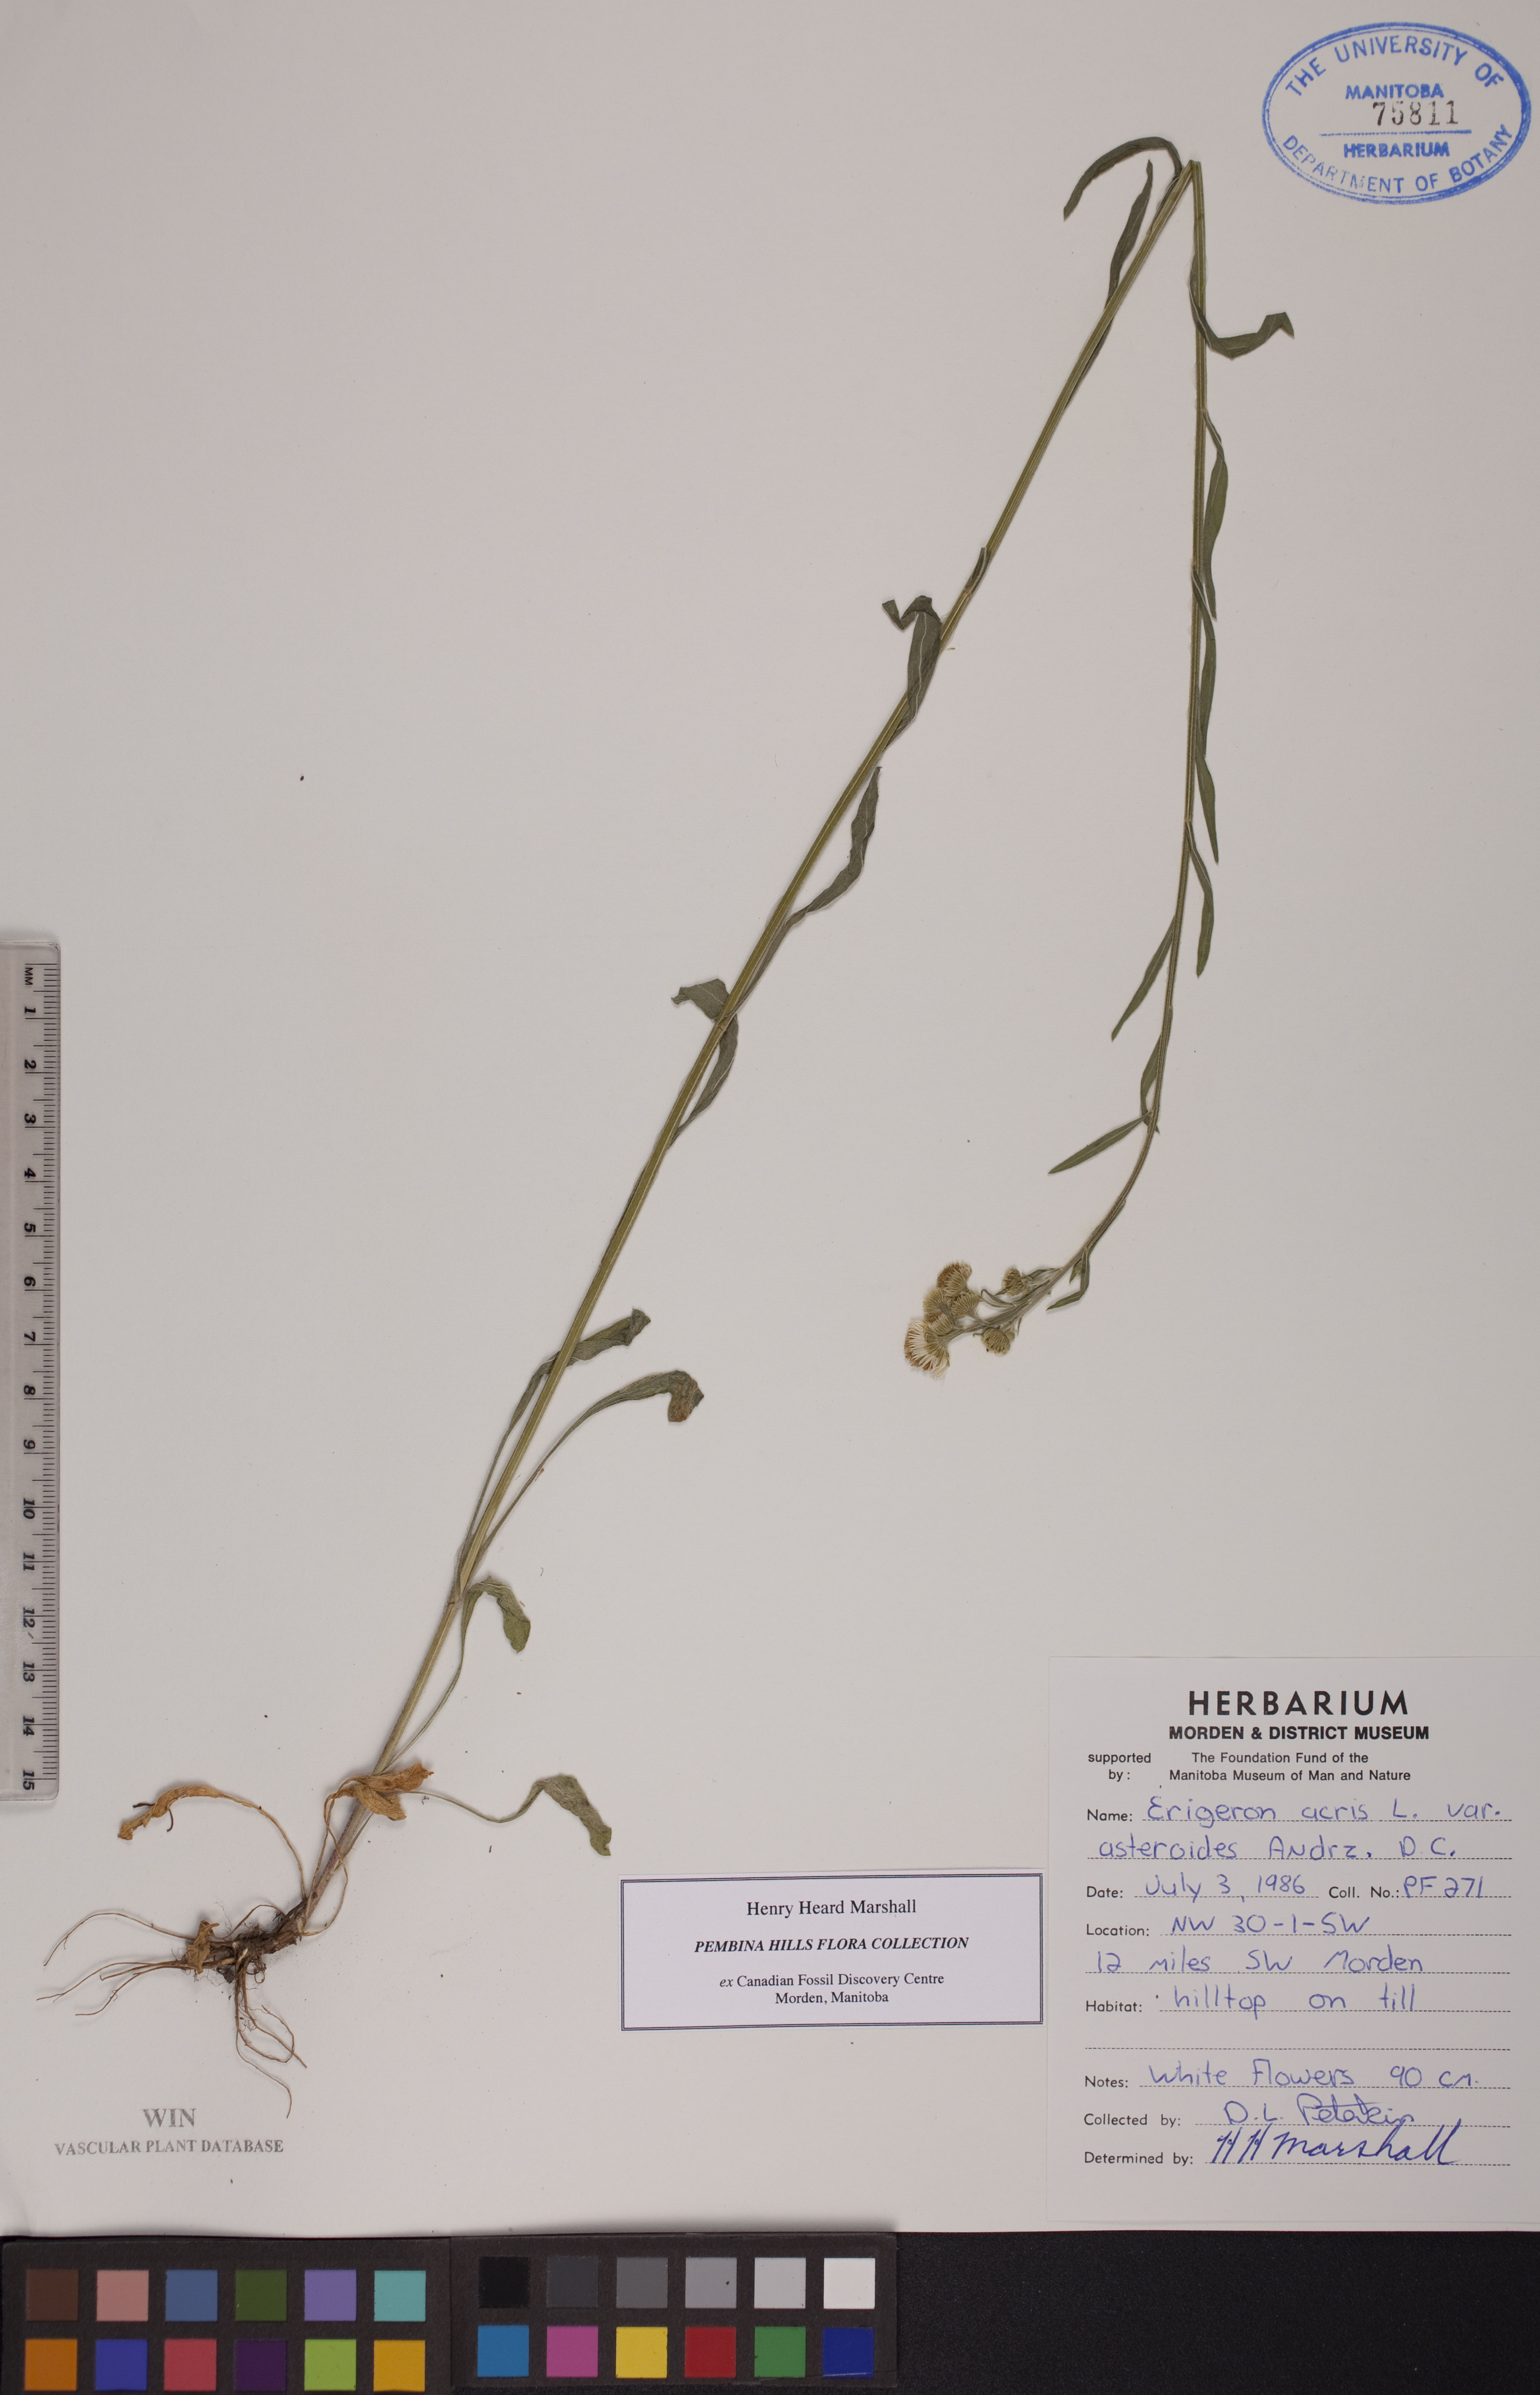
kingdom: Plantae
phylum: Tracheophyta
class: Magnoliopsida
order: Asterales
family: Asteraceae
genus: Erigeron
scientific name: Erigeron podolicus
